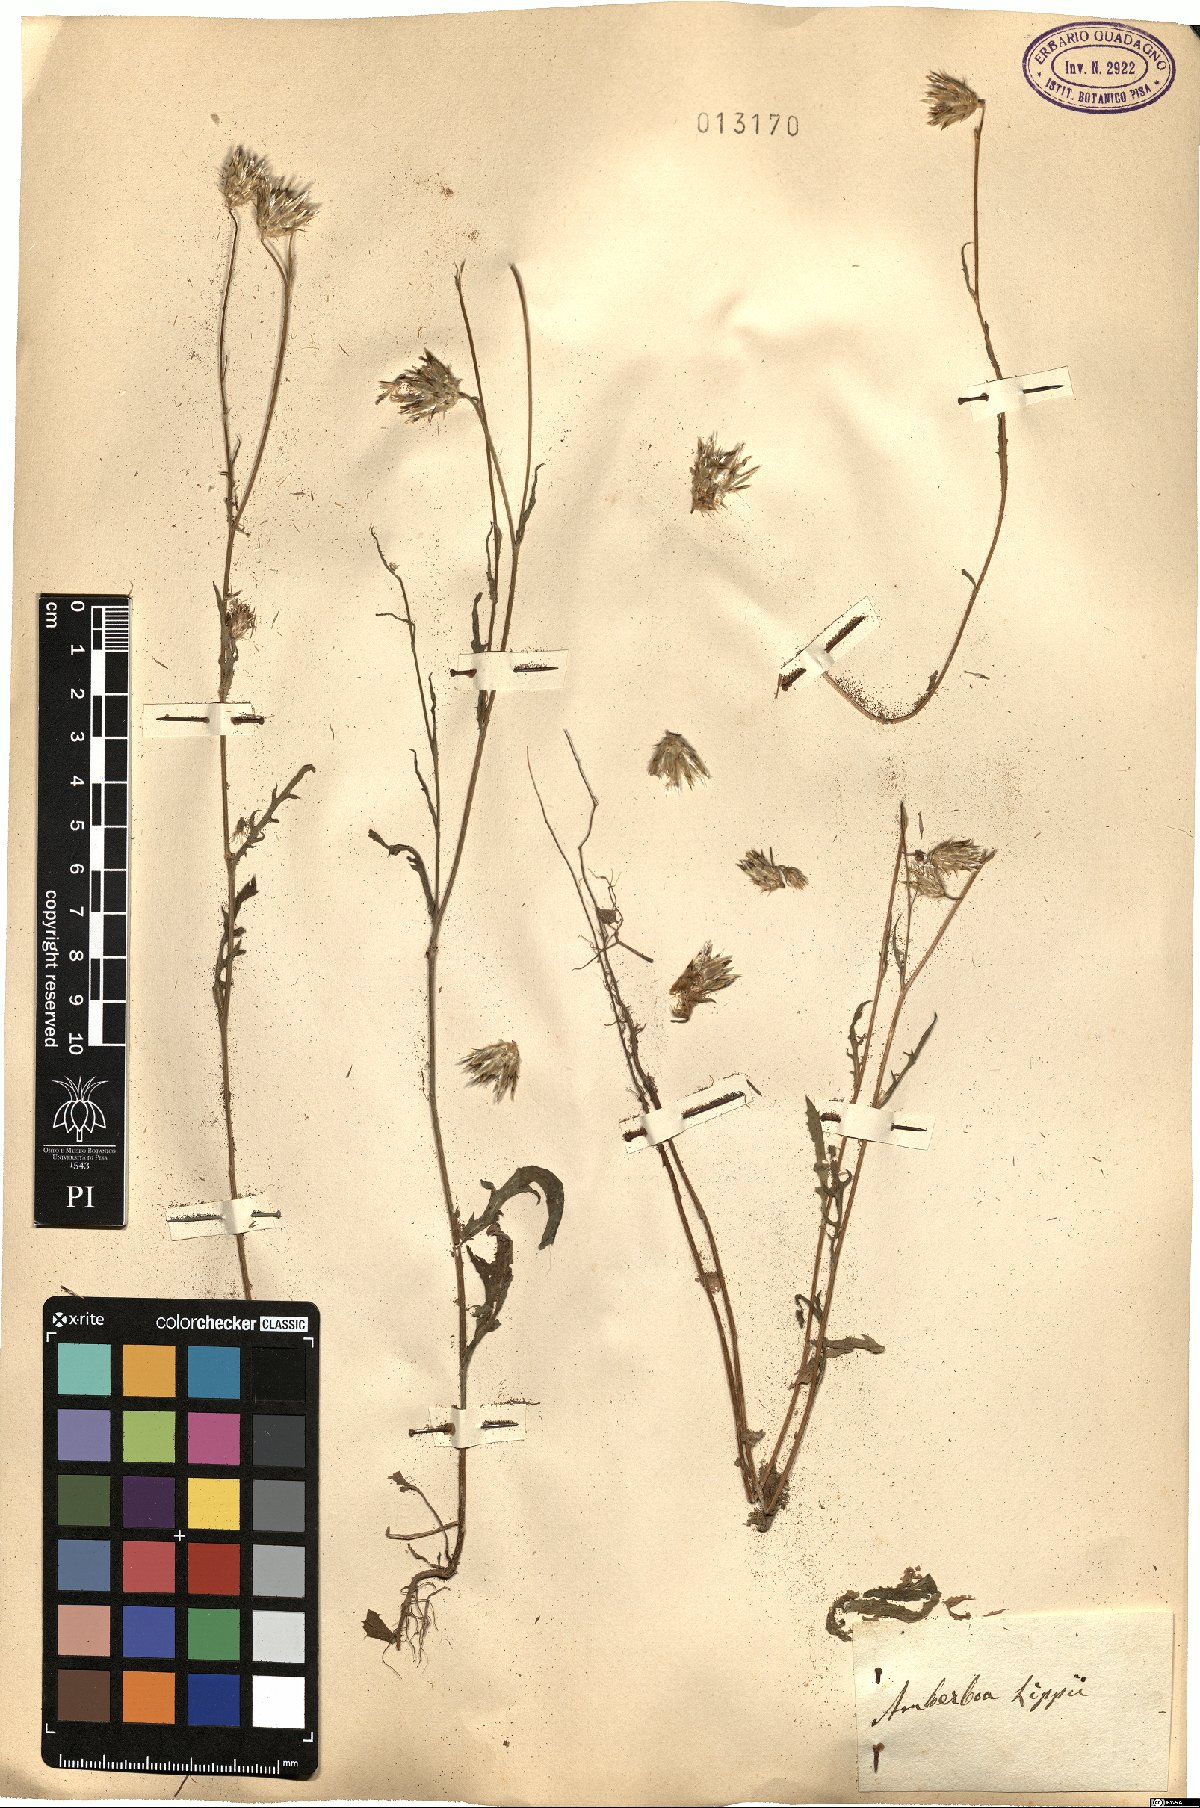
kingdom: Plantae
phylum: Tracheophyta
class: Magnoliopsida
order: Asterales
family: Asteraceae
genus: Volutaria
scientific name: Volutaria lippii
